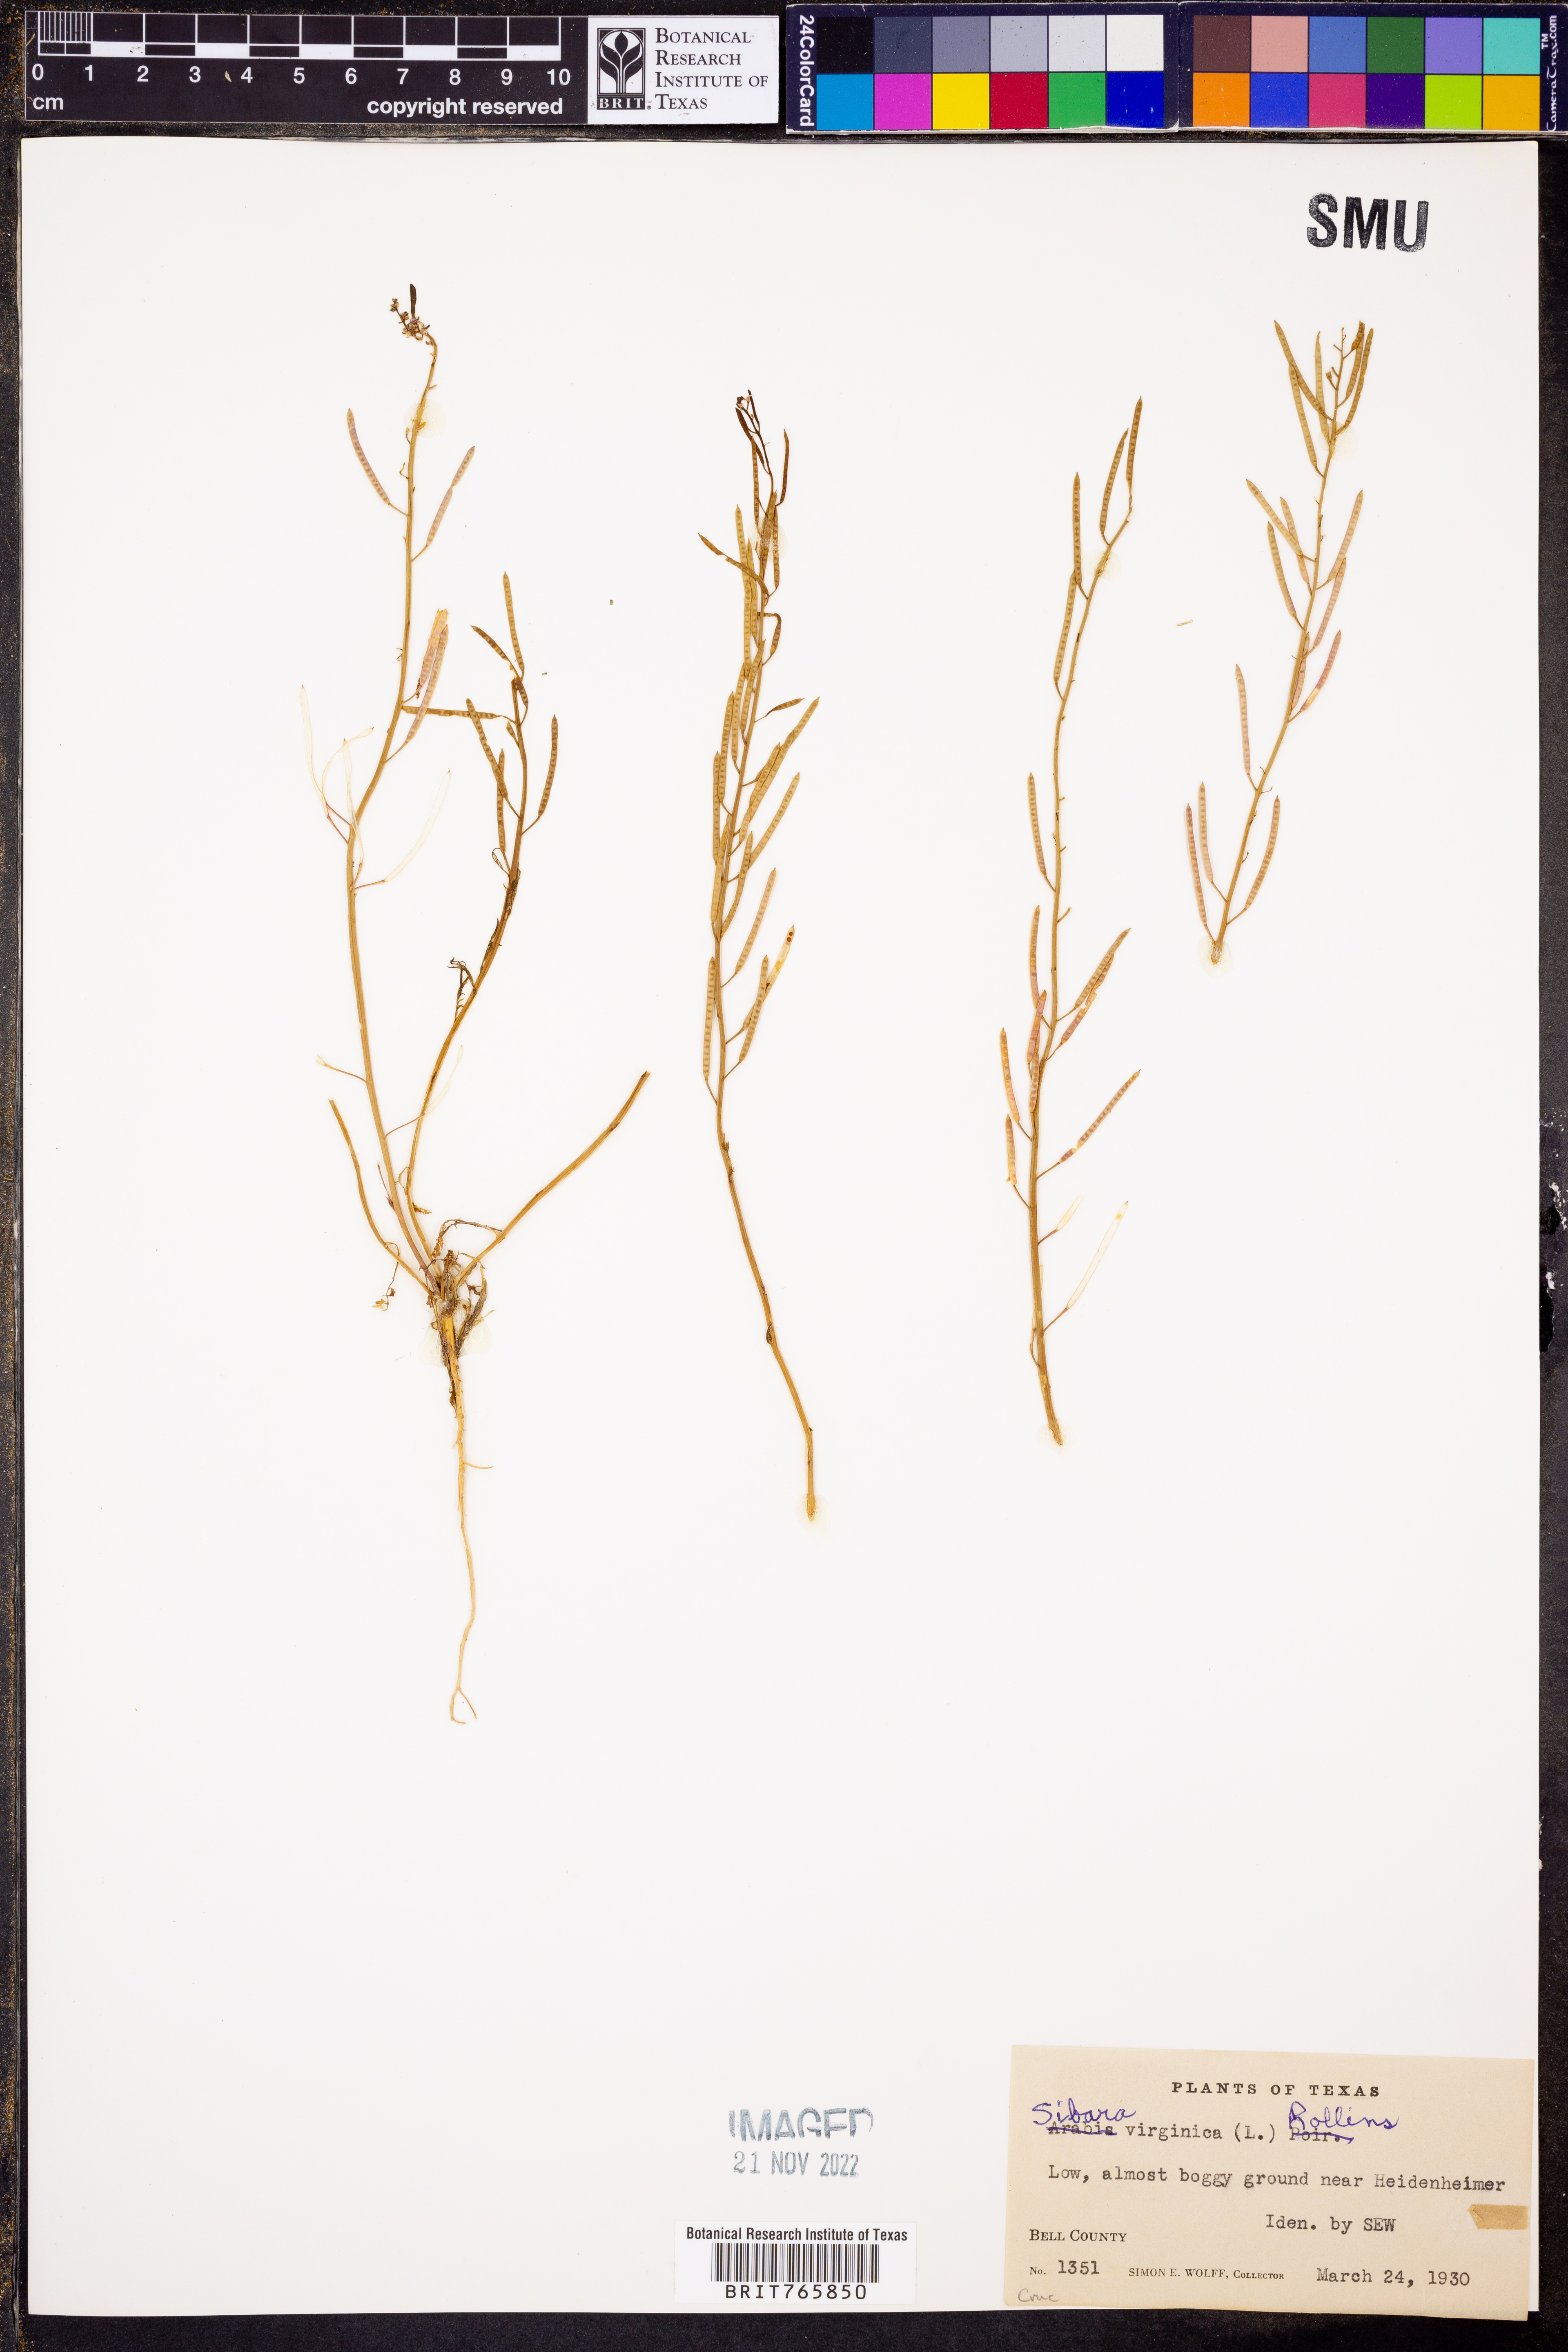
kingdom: Plantae
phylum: Tracheophyta
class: Magnoliopsida
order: Brassicales
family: Brassicaceae
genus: Planodes
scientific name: Planodes virginicum
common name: Virginia cress
